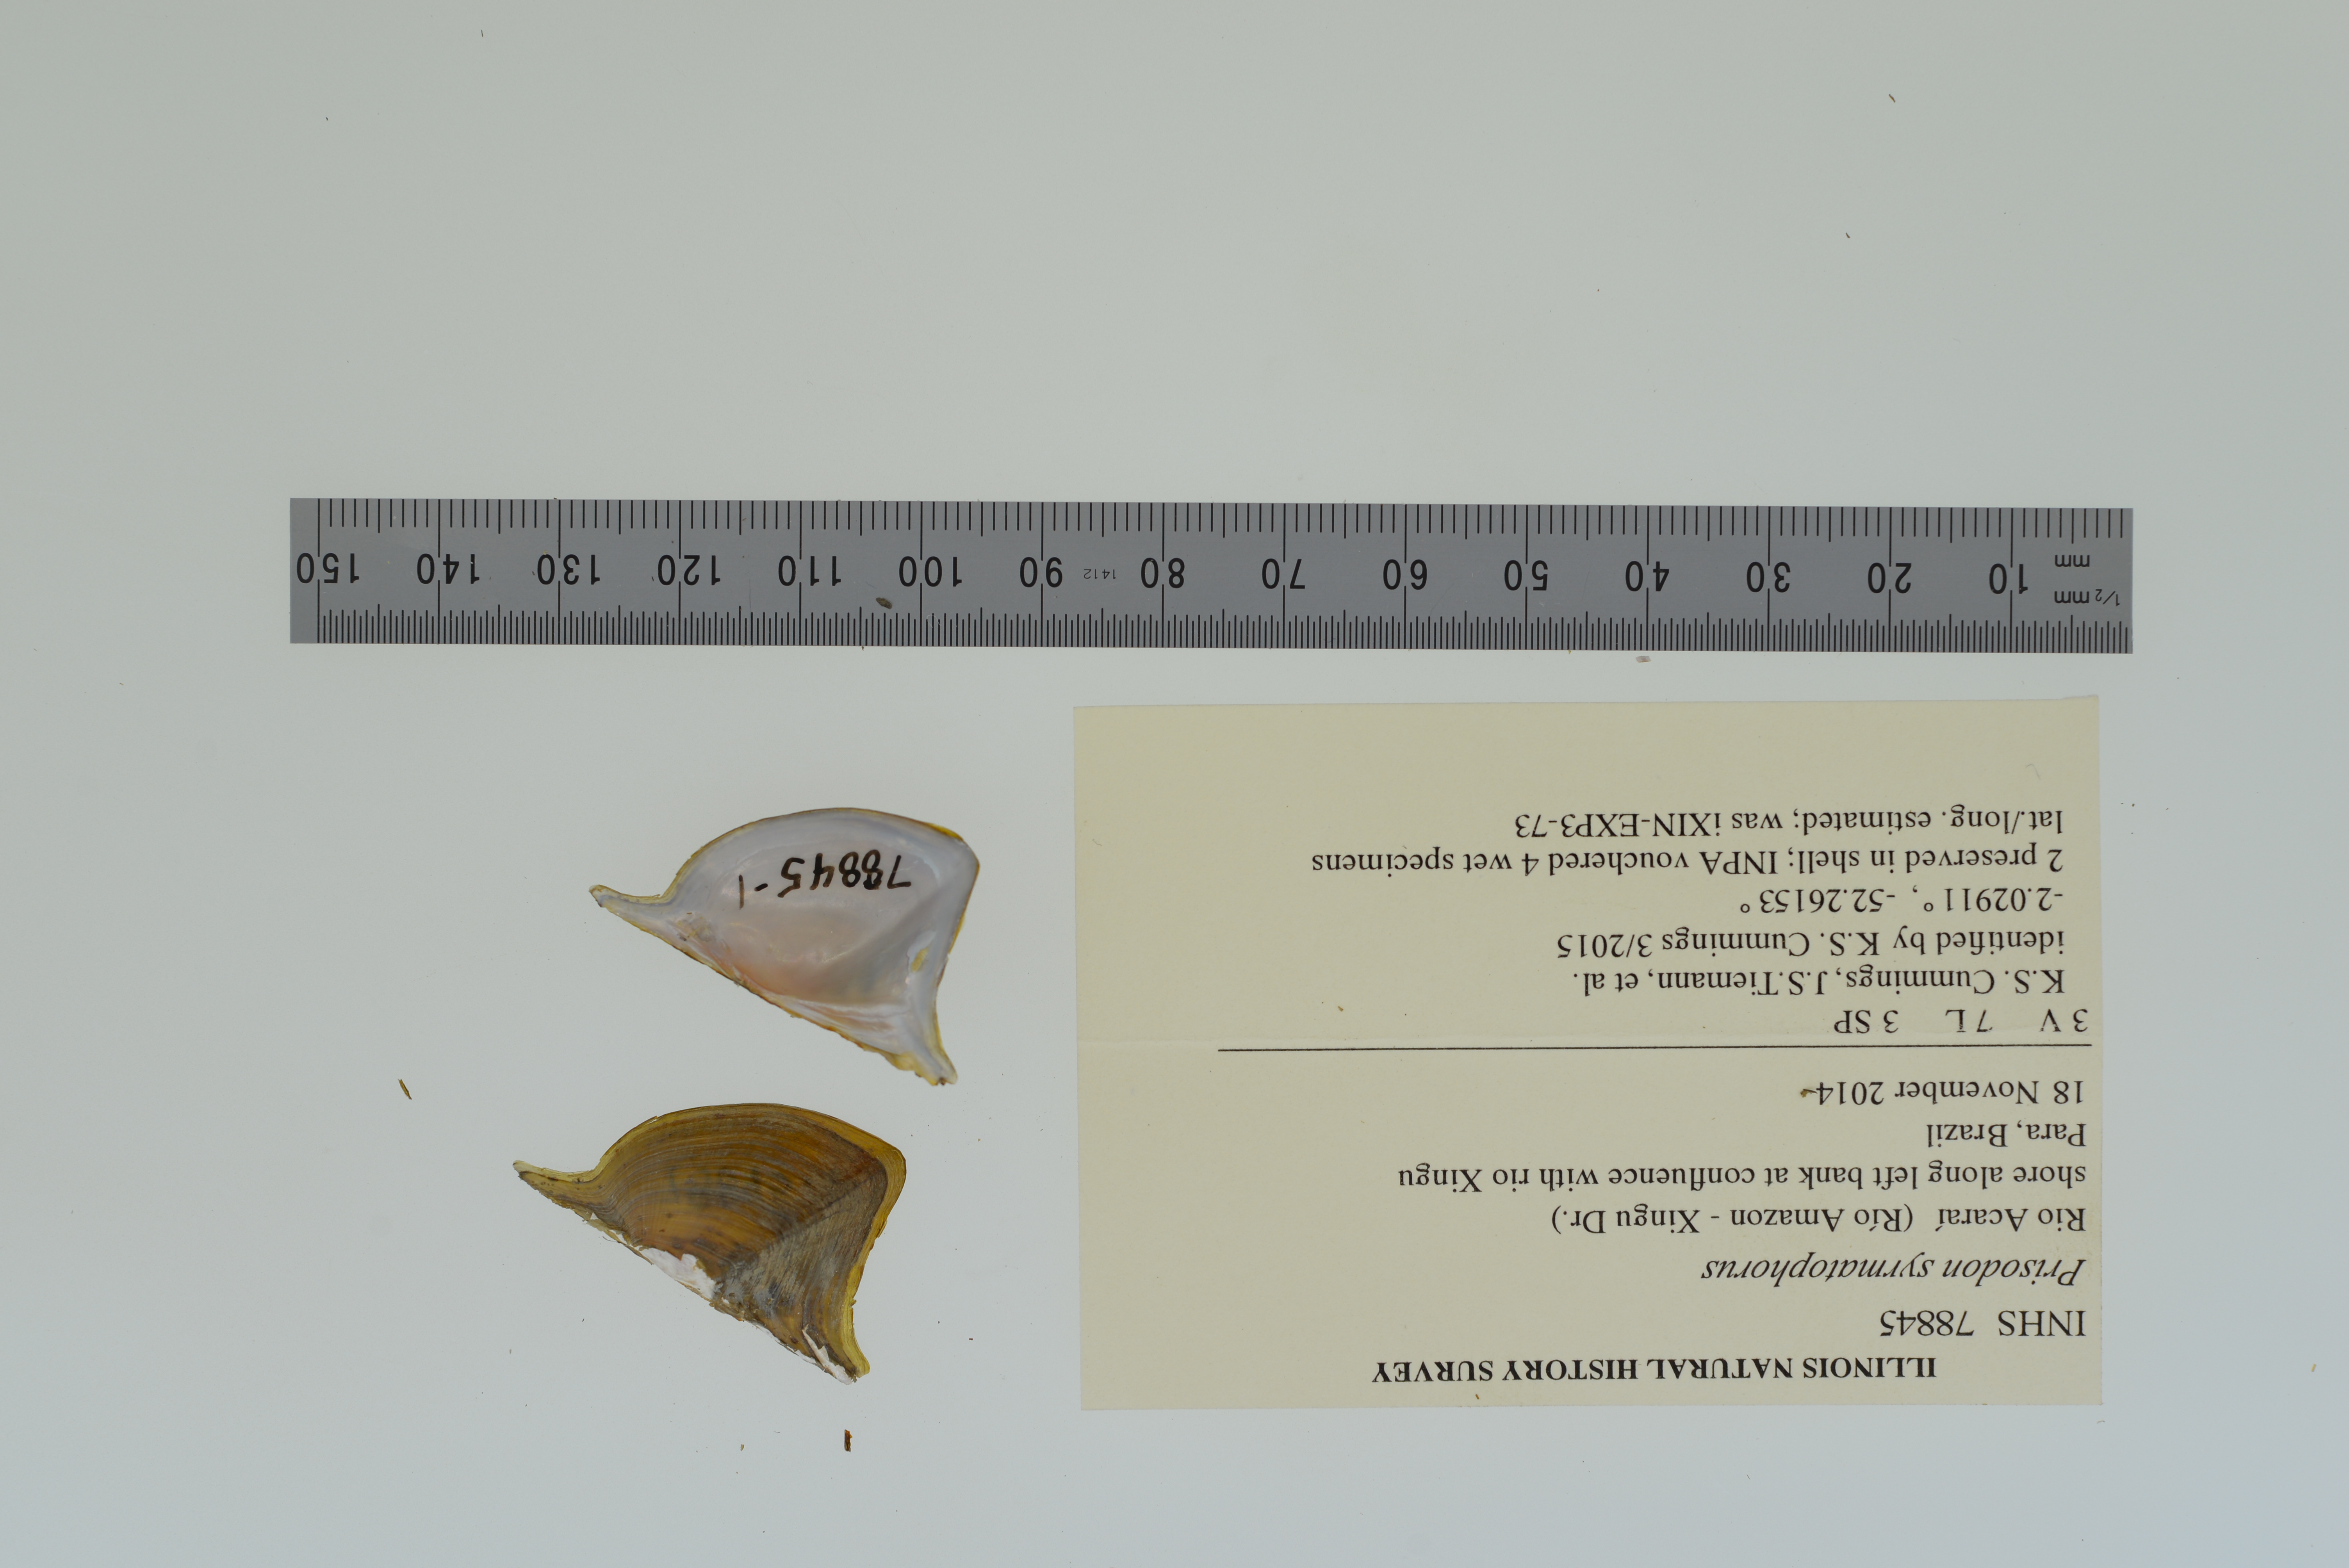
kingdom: Animalia
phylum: Mollusca
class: Bivalvia
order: Unionida
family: Hyriidae
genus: Prisodon
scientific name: Prisodon syrmatophorus
